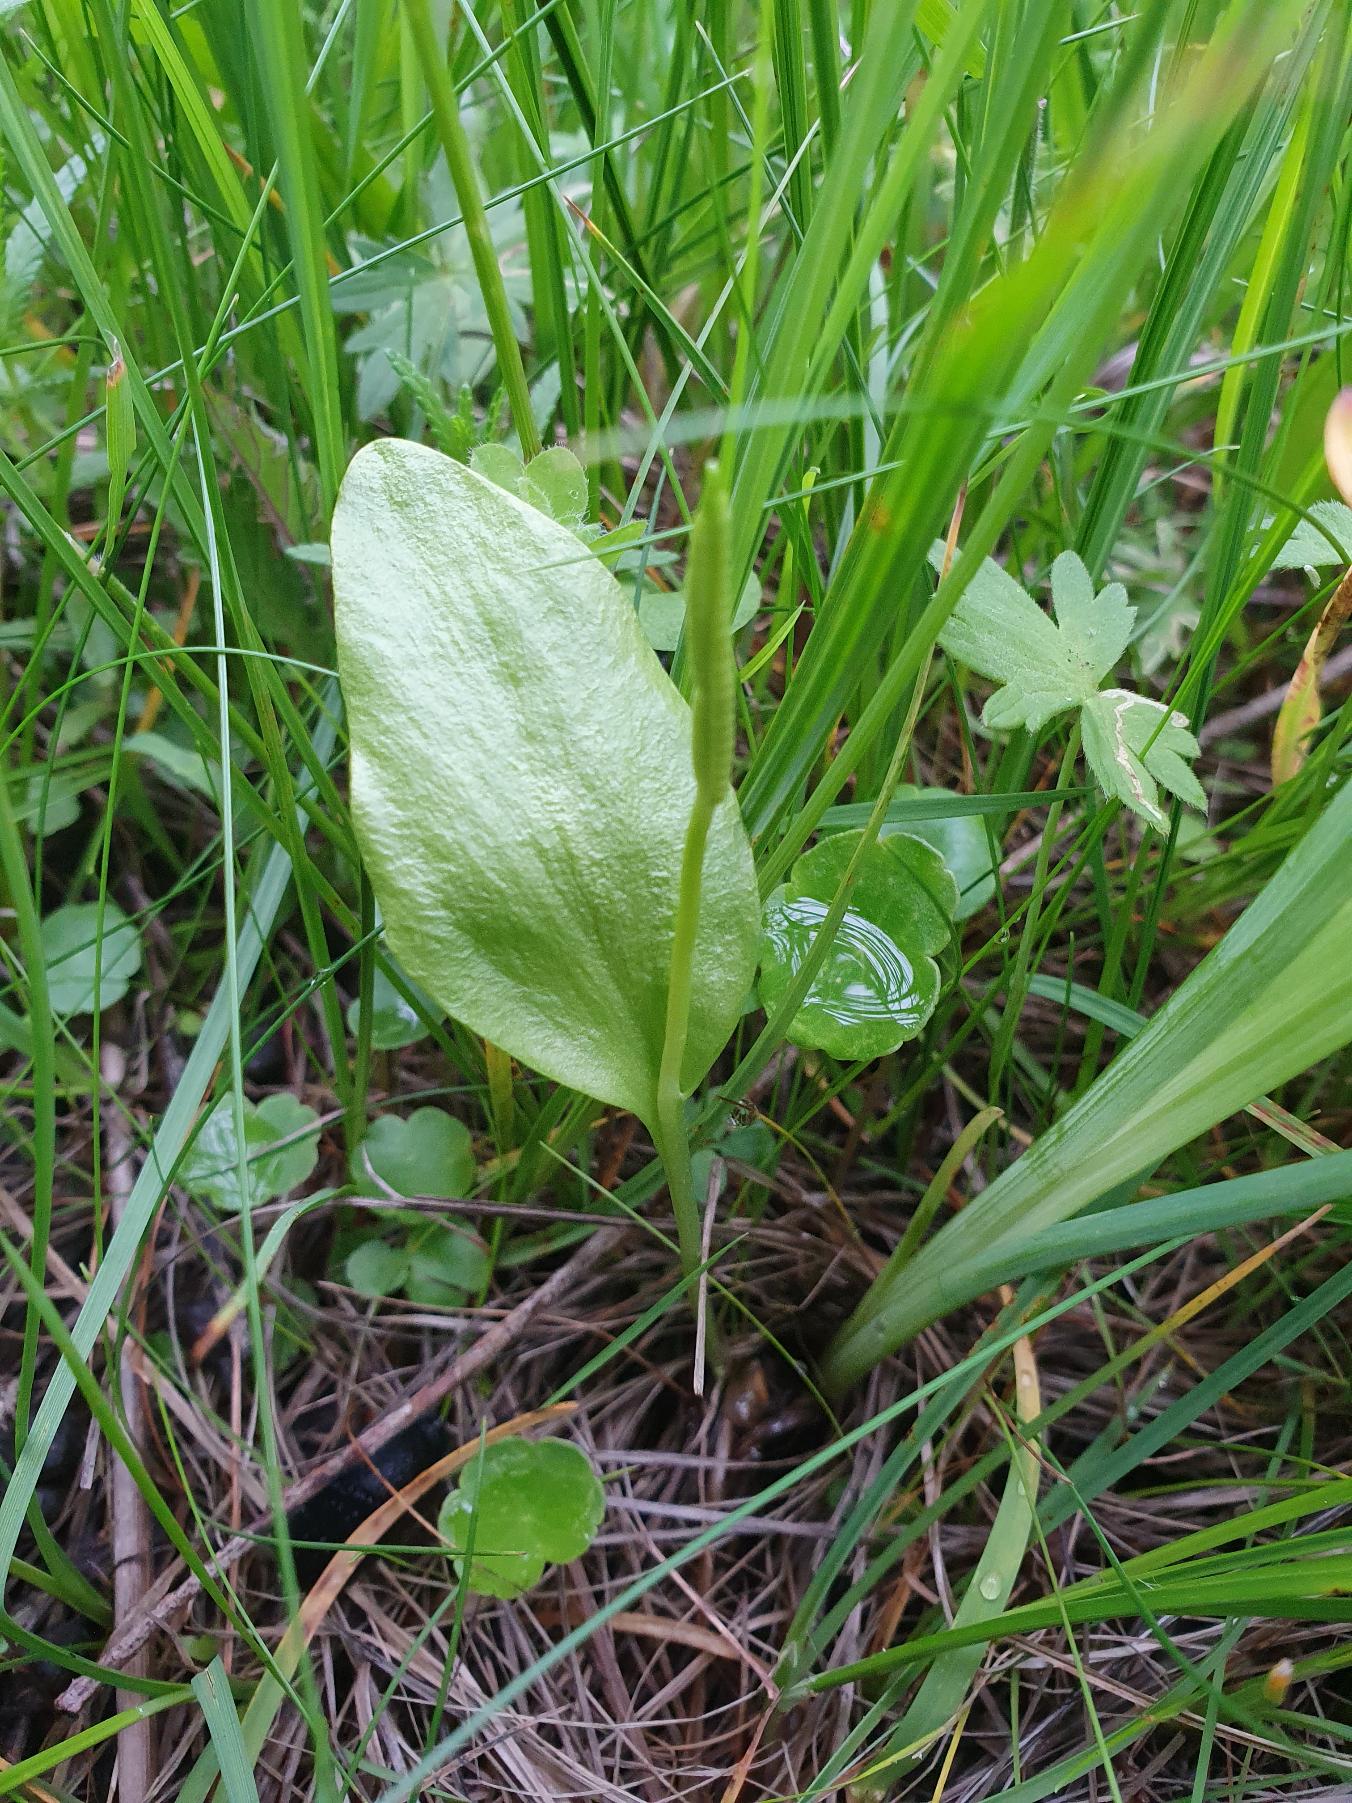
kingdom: Plantae
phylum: Tracheophyta
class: Polypodiopsida
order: Ophioglossales
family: Ophioglossaceae
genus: Ophioglossum
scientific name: Ophioglossum vulgatum
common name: Slangetunge
